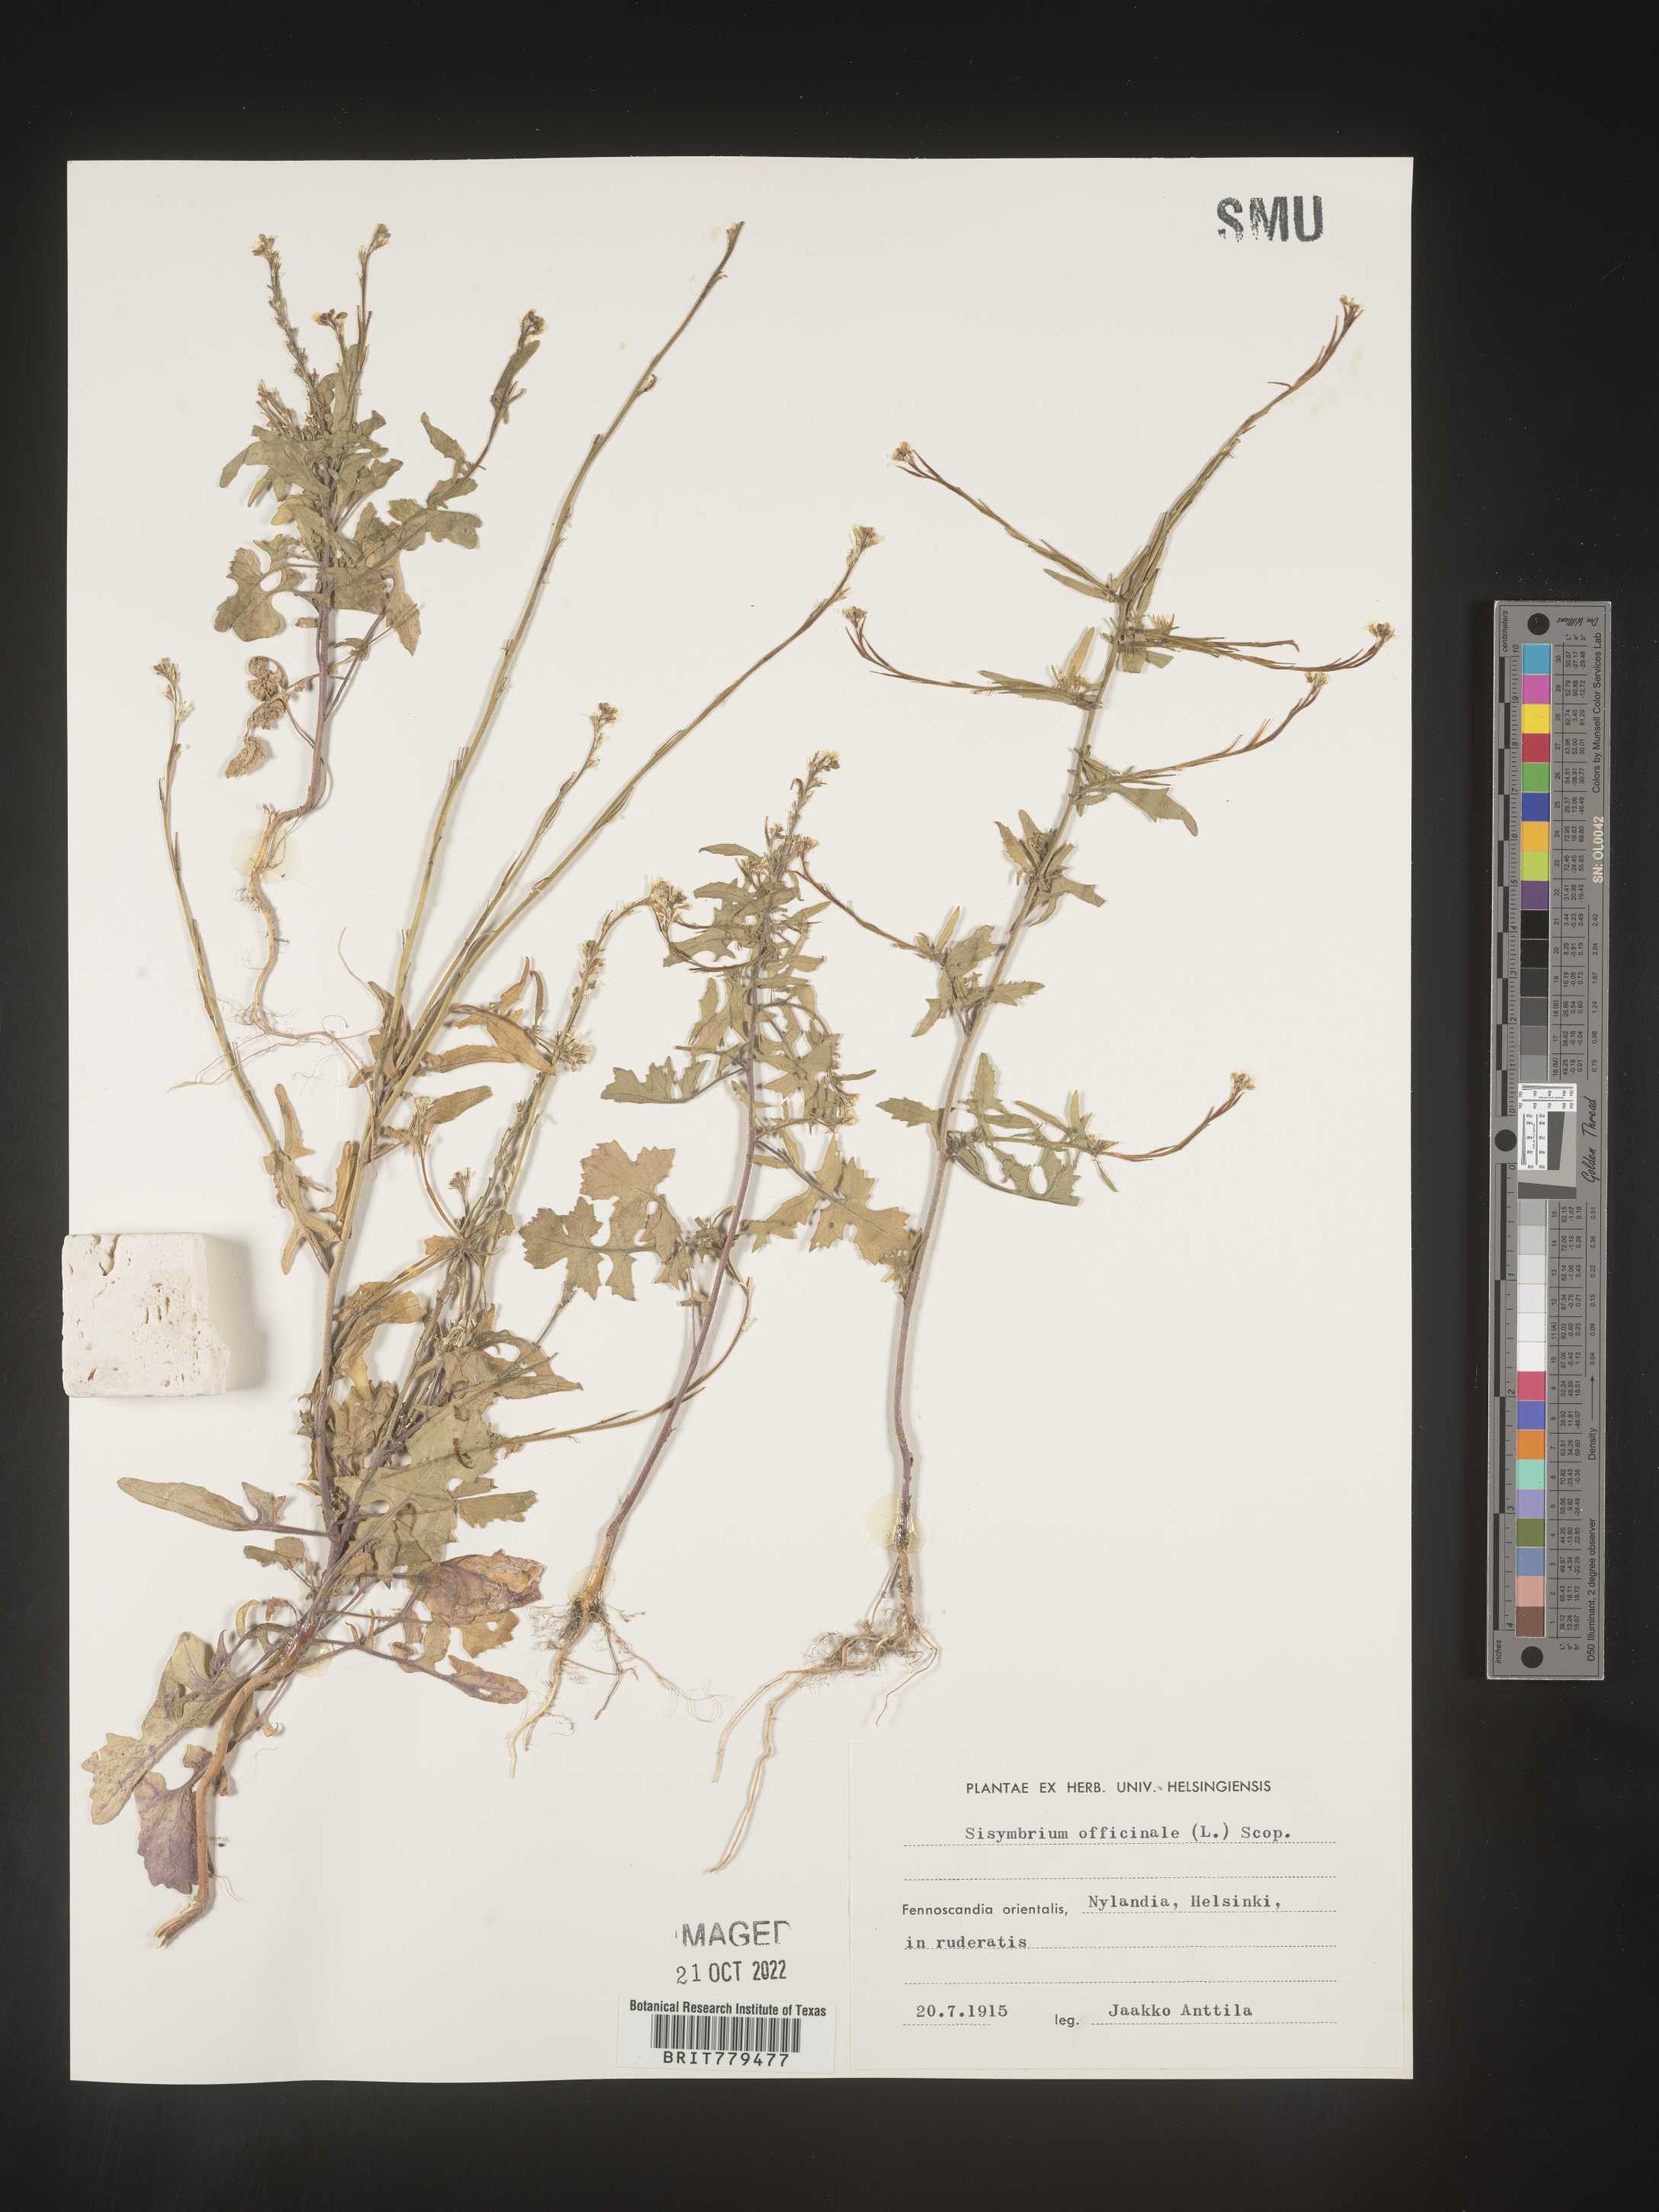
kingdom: Plantae
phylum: Tracheophyta
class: Magnoliopsida
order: Brassicales
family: Brassicaceae
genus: Sisymbrium
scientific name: Sisymbrium
